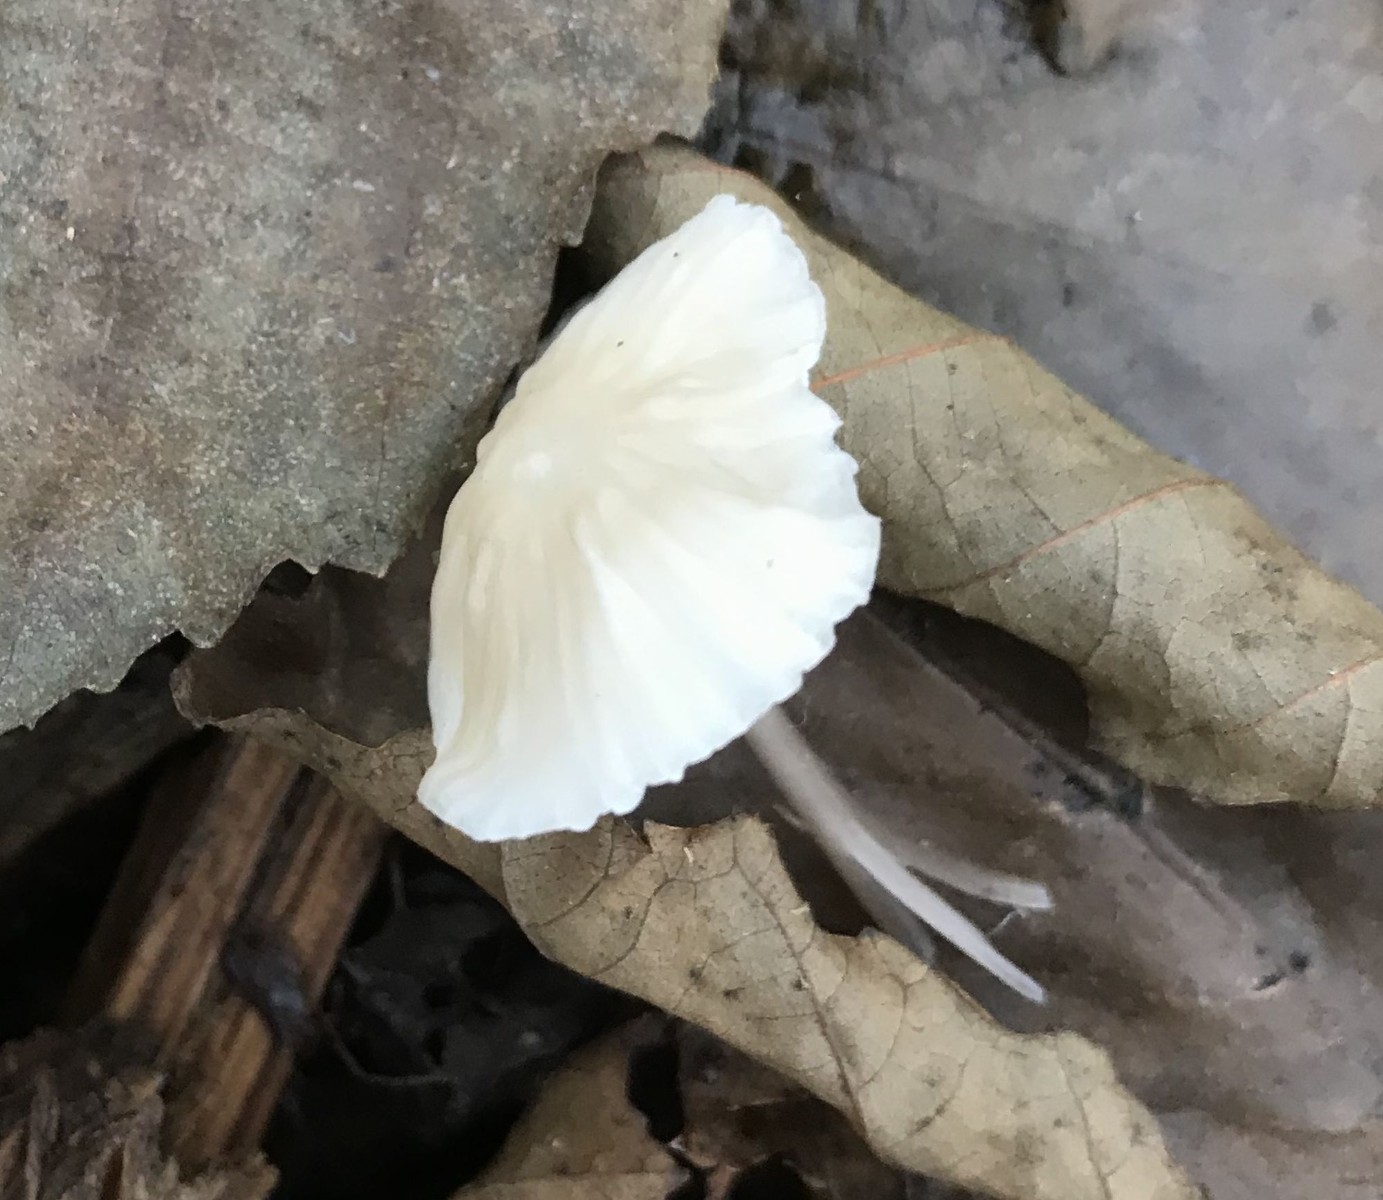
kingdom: Fungi
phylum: Basidiomycota
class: Agaricomycetes
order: Agaricales
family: Mycenaceae
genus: Mycena
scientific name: Mycena
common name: huesvamp
